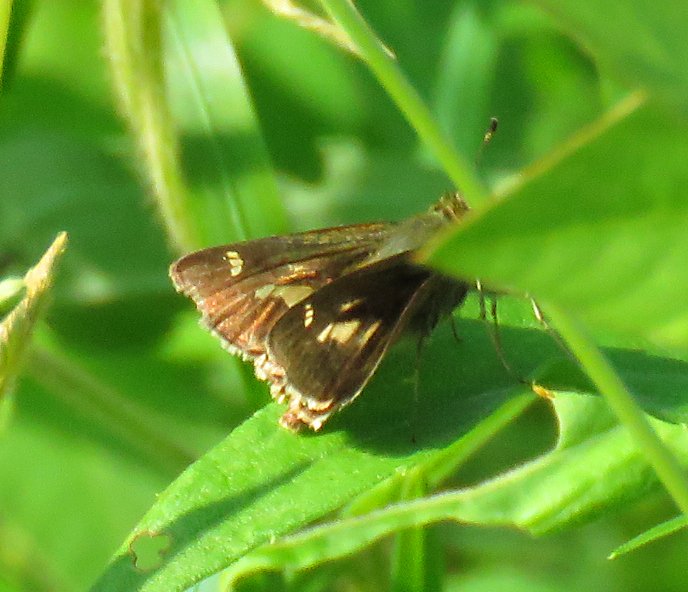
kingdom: Animalia
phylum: Arthropoda
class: Insecta
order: Lepidoptera
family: Hesperiidae
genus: Vernia
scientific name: Vernia verna
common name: Little Glassywing
